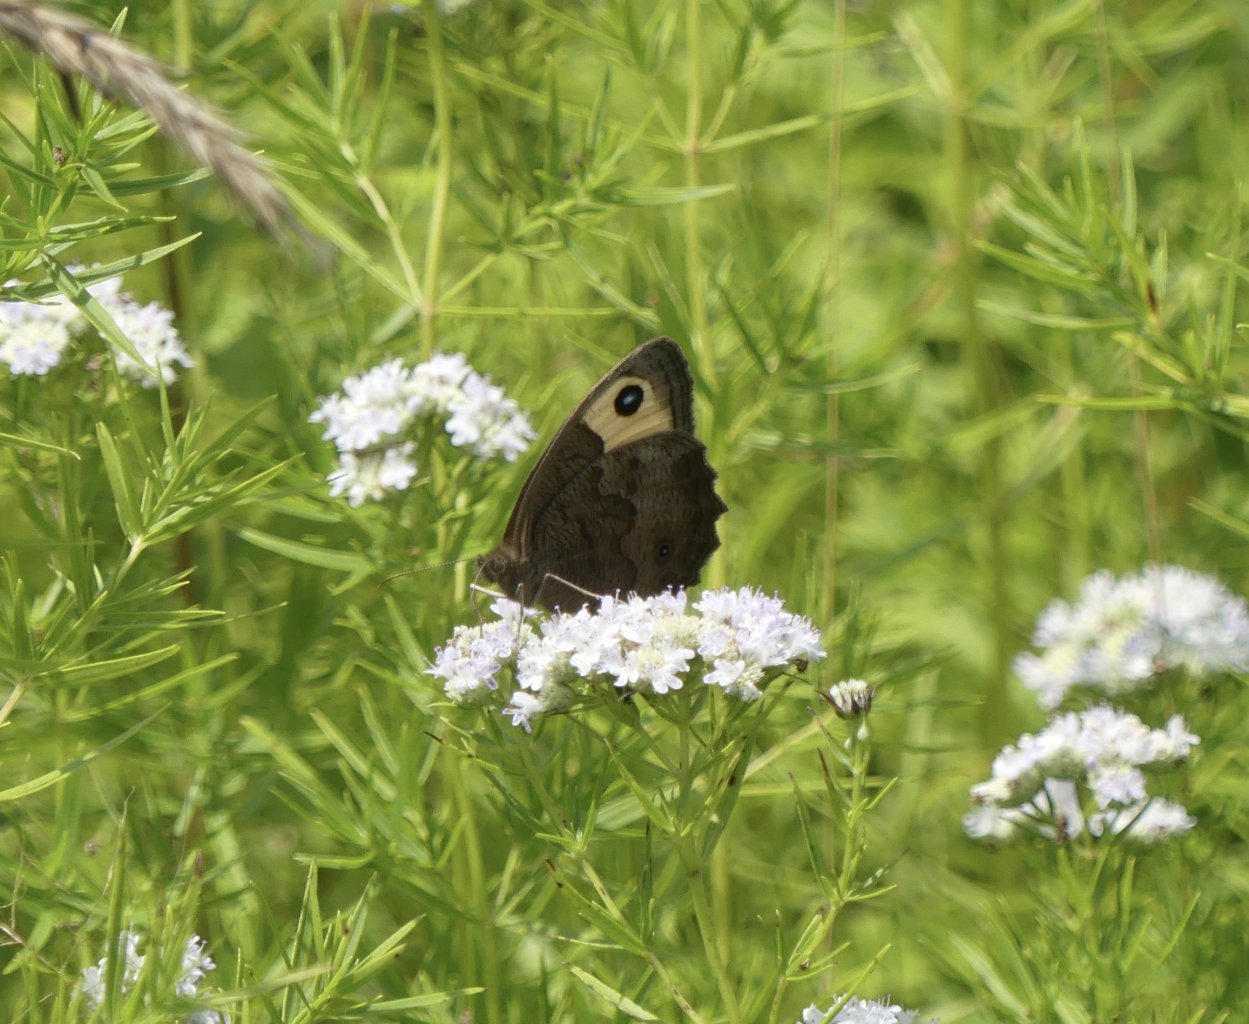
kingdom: Animalia
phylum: Arthropoda
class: Insecta
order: Lepidoptera
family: Nymphalidae
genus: Cercyonis
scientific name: Cercyonis pegala
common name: Common Wood-Nymph
